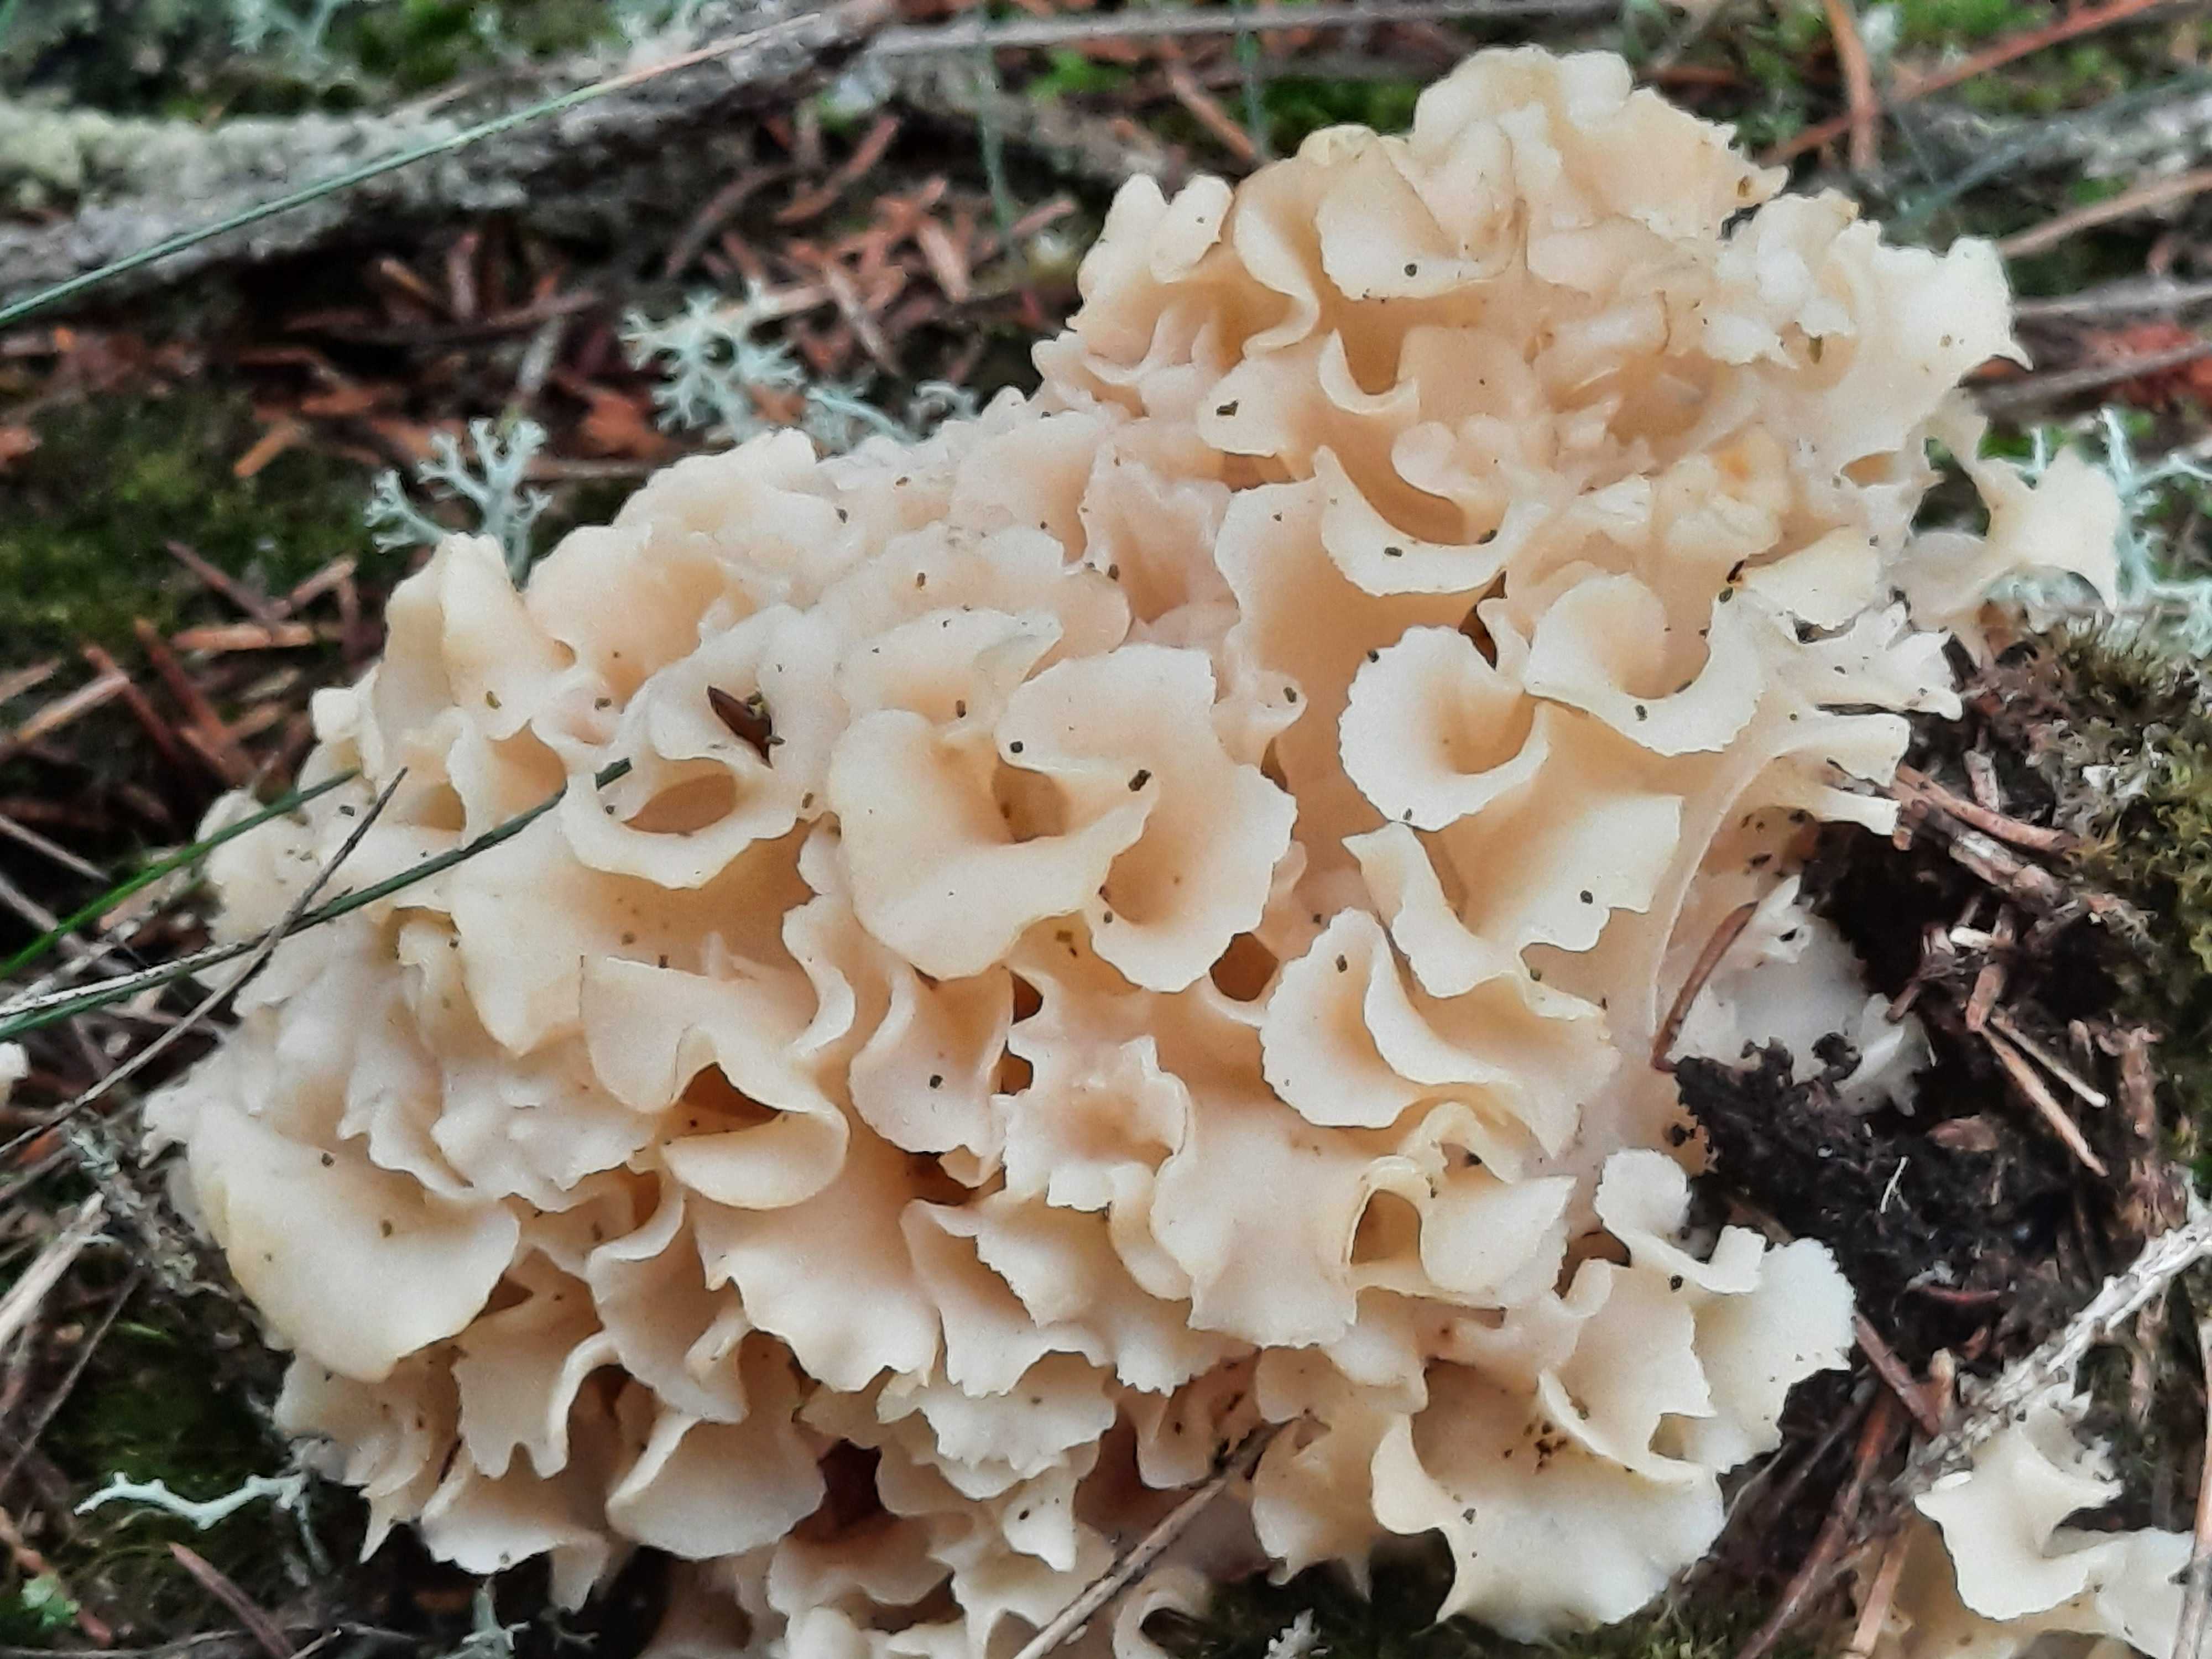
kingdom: Fungi
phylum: Basidiomycota
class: Agaricomycetes
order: Polyporales
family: Sparassidaceae
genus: Sparassis
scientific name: Sparassis crispa
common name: kruset blomkålssvamp
